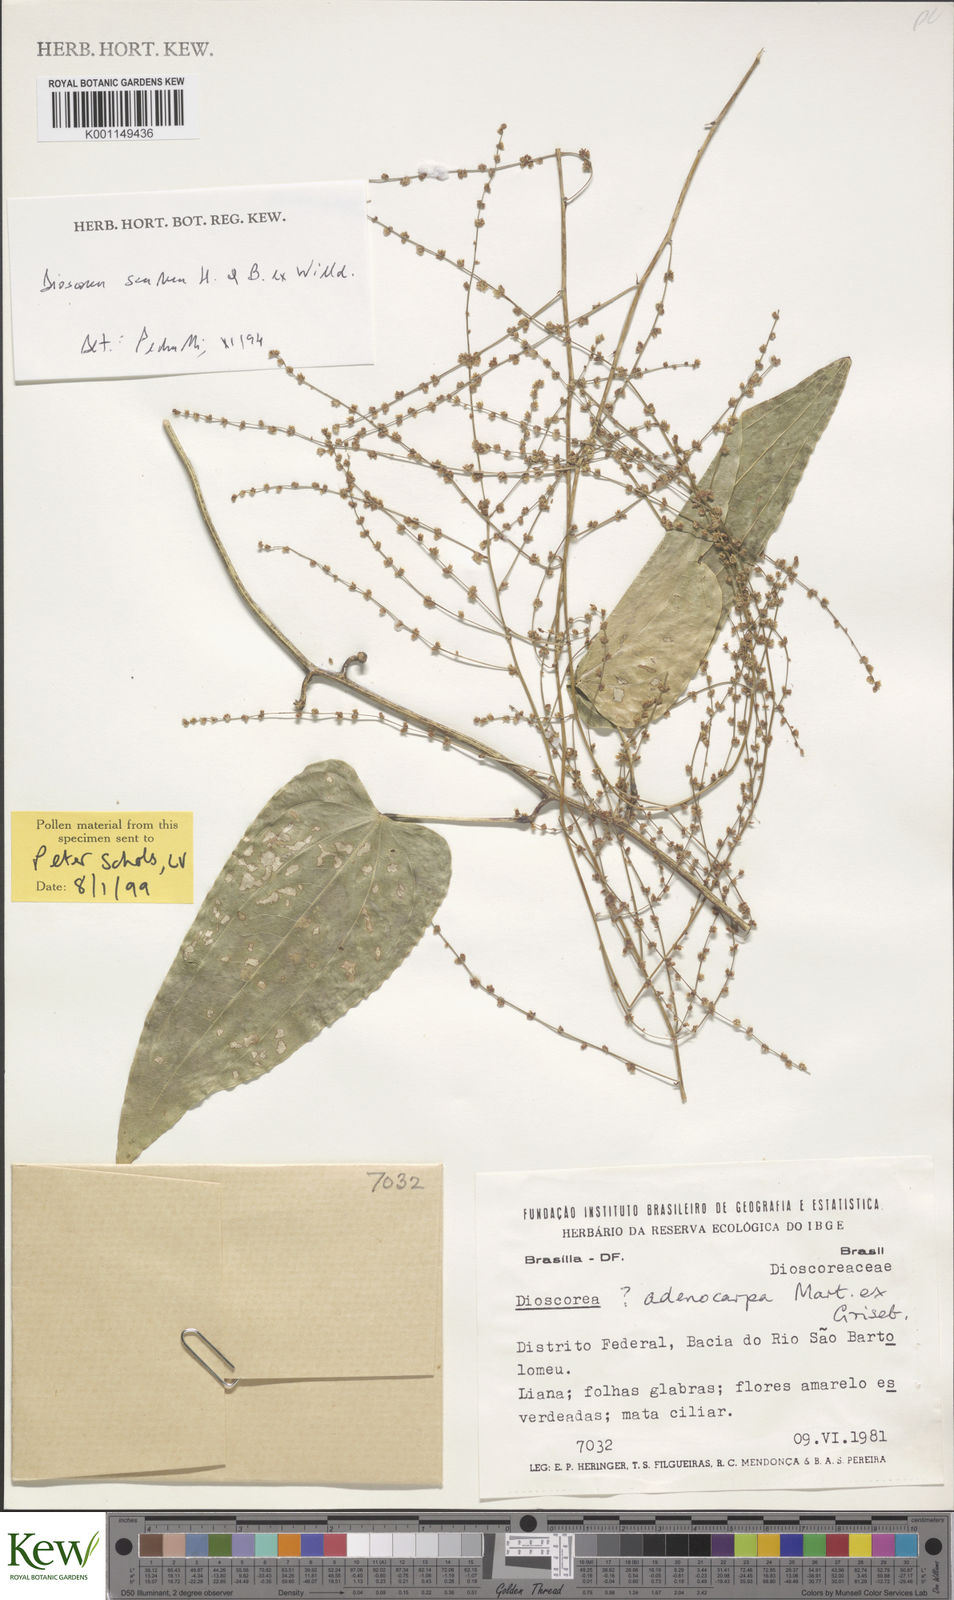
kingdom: Plantae
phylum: Tracheophyta
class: Liliopsida
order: Dioscoreales
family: Dioscoreaceae
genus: Dioscorea
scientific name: Dioscorea ovata
